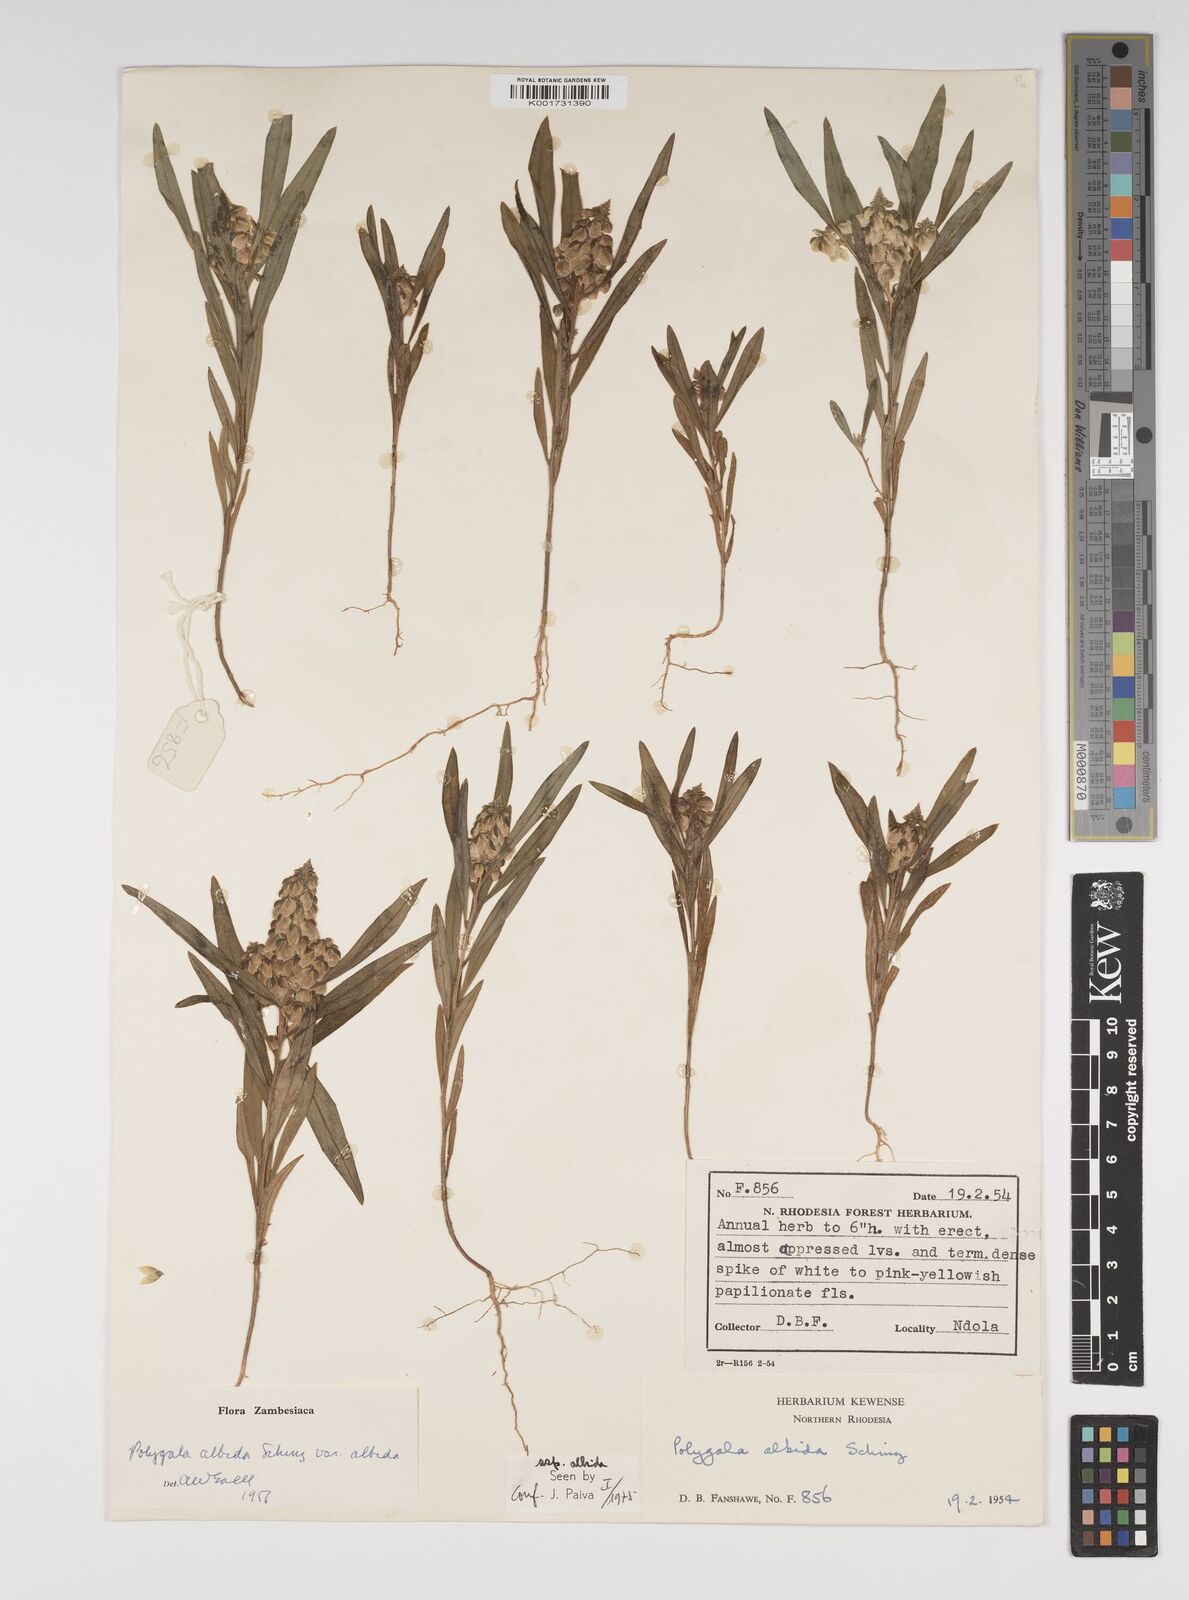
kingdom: Plantae
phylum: Tracheophyta
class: Magnoliopsida
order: Fabales
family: Polygalaceae
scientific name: Polygalaceae
